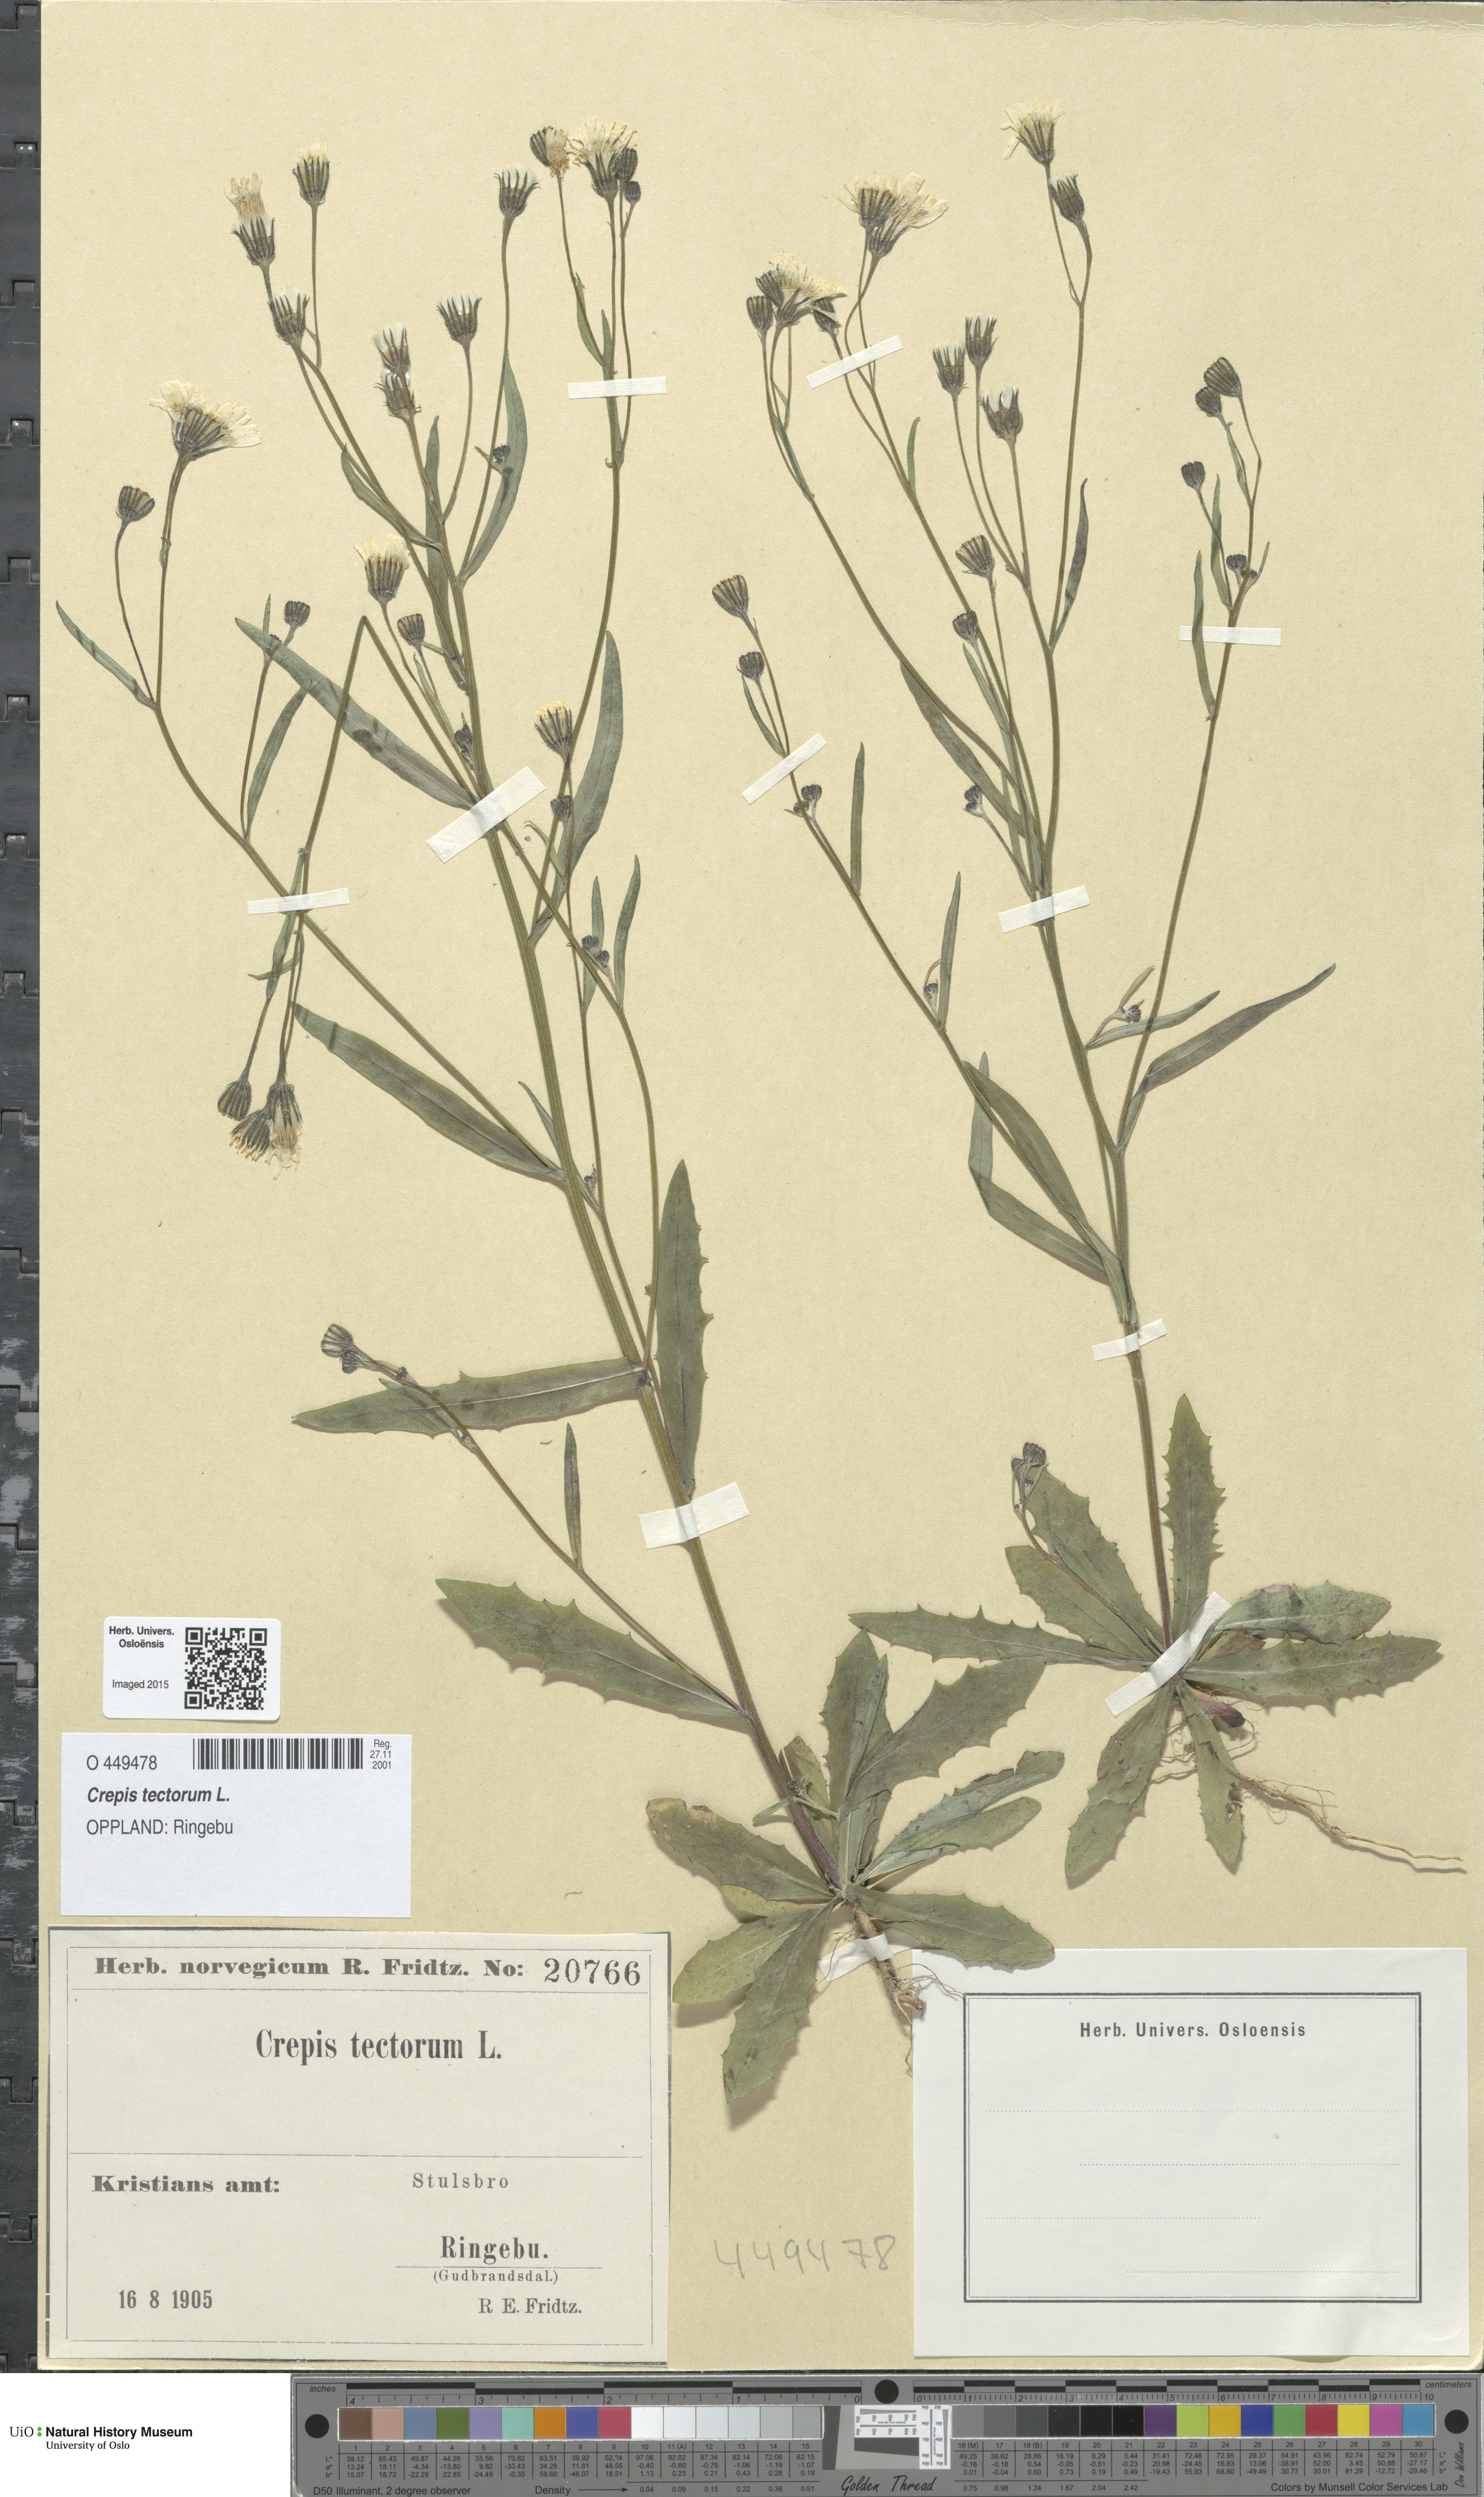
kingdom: Plantae
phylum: Tracheophyta
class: Magnoliopsida
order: Asterales
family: Asteraceae
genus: Crepis
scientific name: Crepis tectorum
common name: Narrow-leaved hawk's-beard
